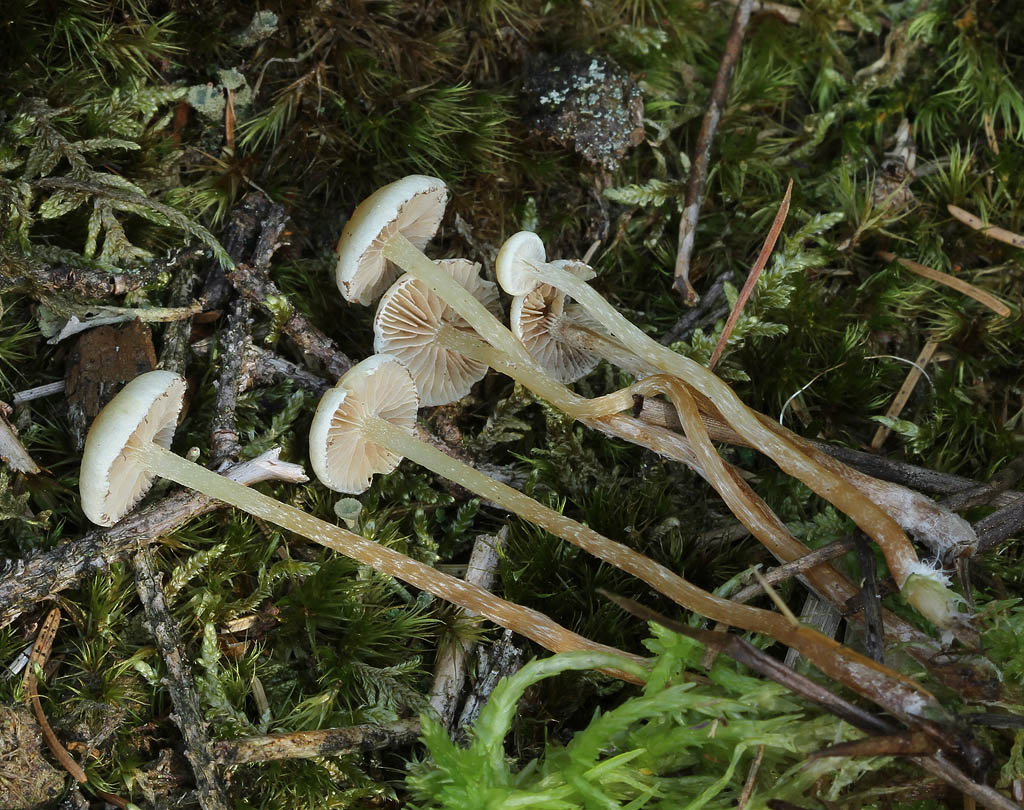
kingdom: Fungi
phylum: Basidiomycota
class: Agaricomycetes
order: Agaricales
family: Strophariaceae
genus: Hypholoma
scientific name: Hypholoma elongatum
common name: slank svovlhat
